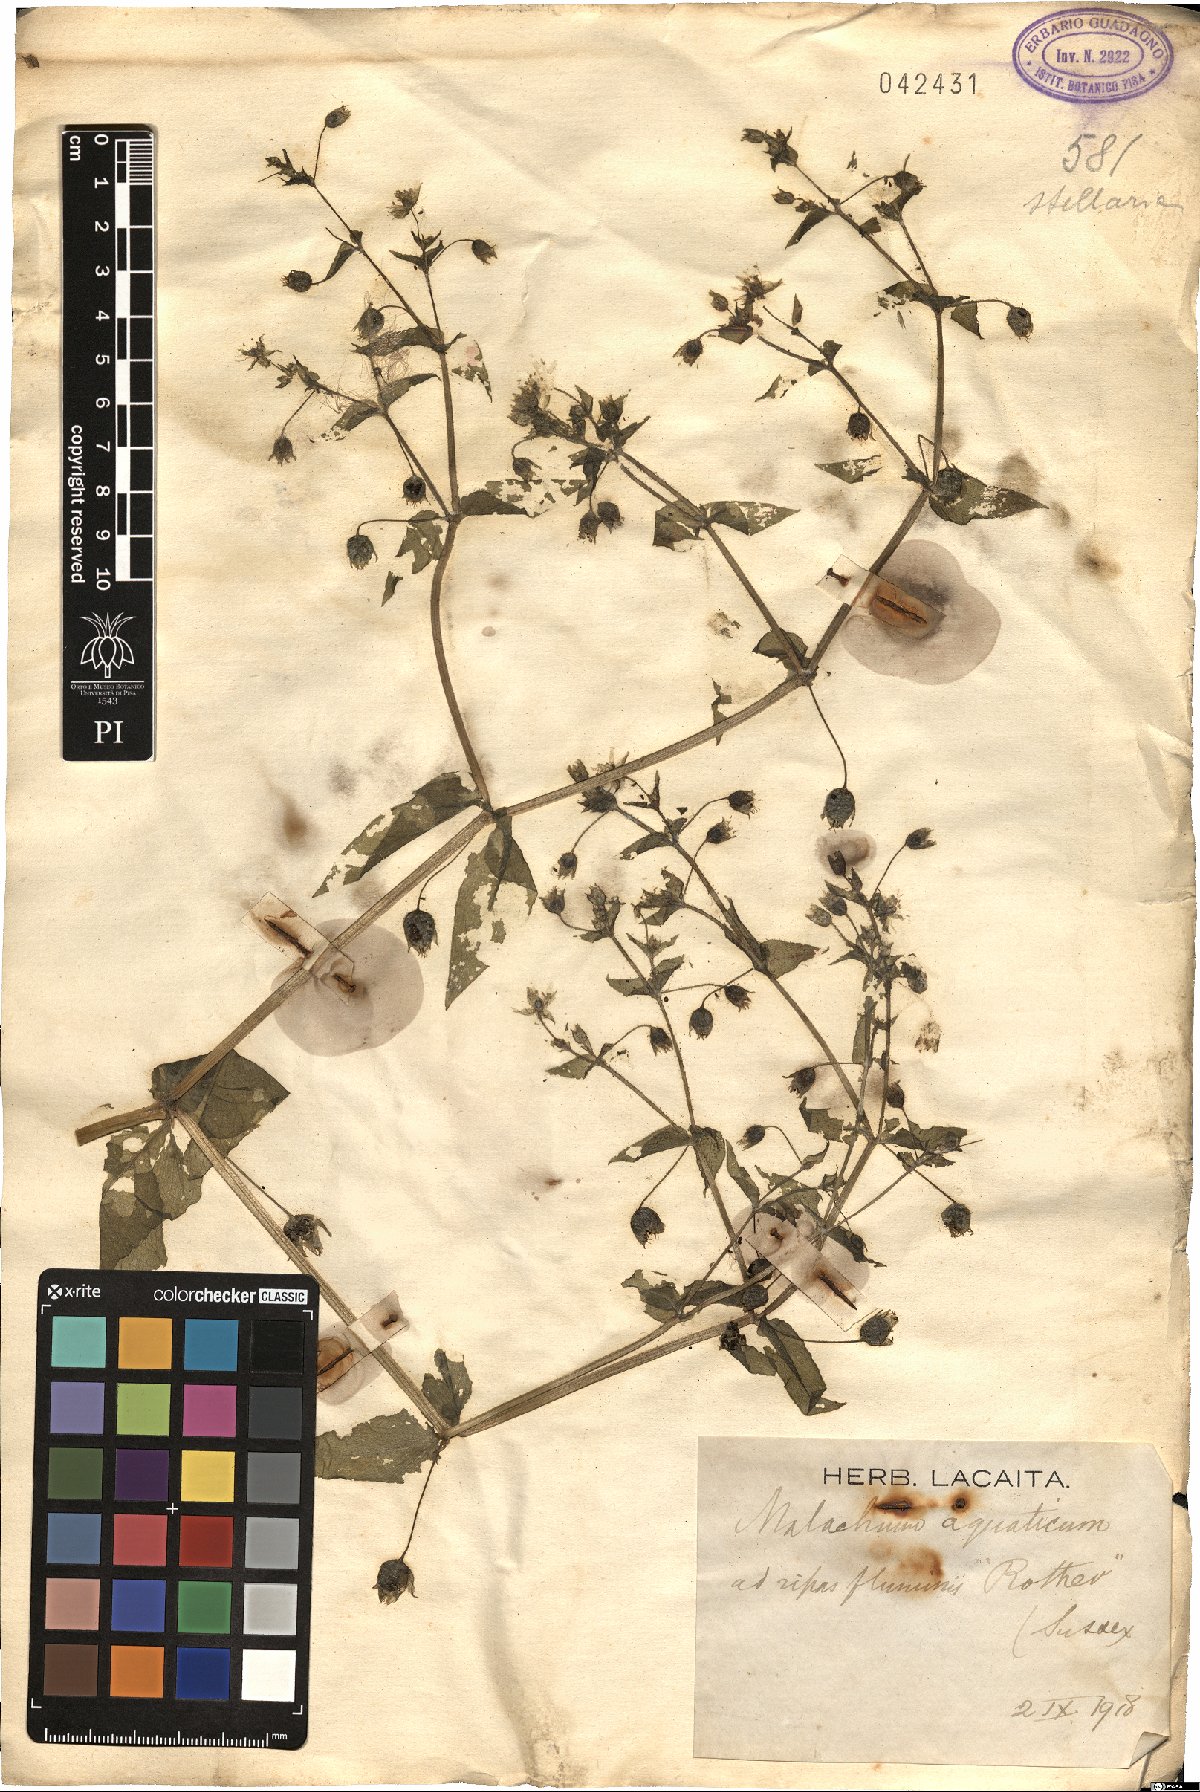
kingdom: Plantae
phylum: Tracheophyta
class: Magnoliopsida
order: Caryophyllales
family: Caryophyllaceae
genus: Stellaria
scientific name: Stellaria aquatica
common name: Water chickweed
